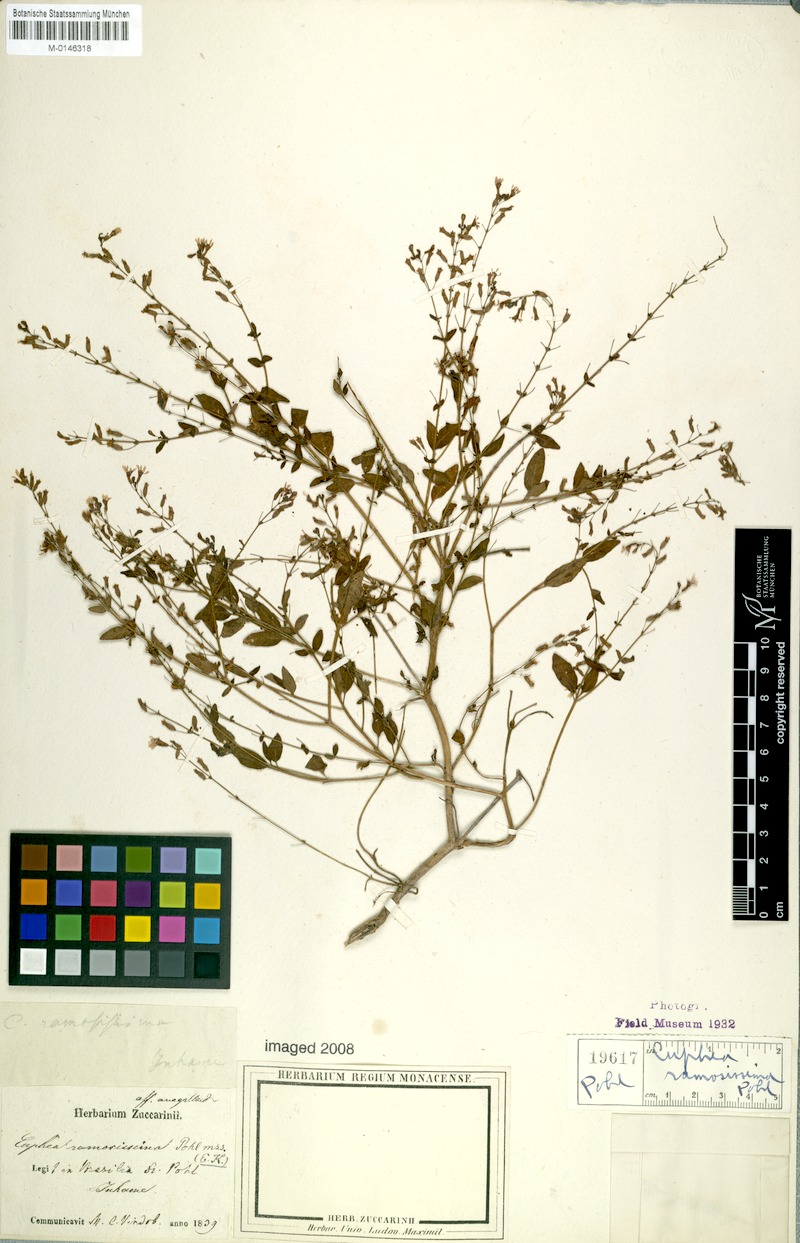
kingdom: Plantae
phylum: Tracheophyta
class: Magnoliopsida
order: Myrtales
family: Lythraceae
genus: Cuphea
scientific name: Cuphea ramosissima
